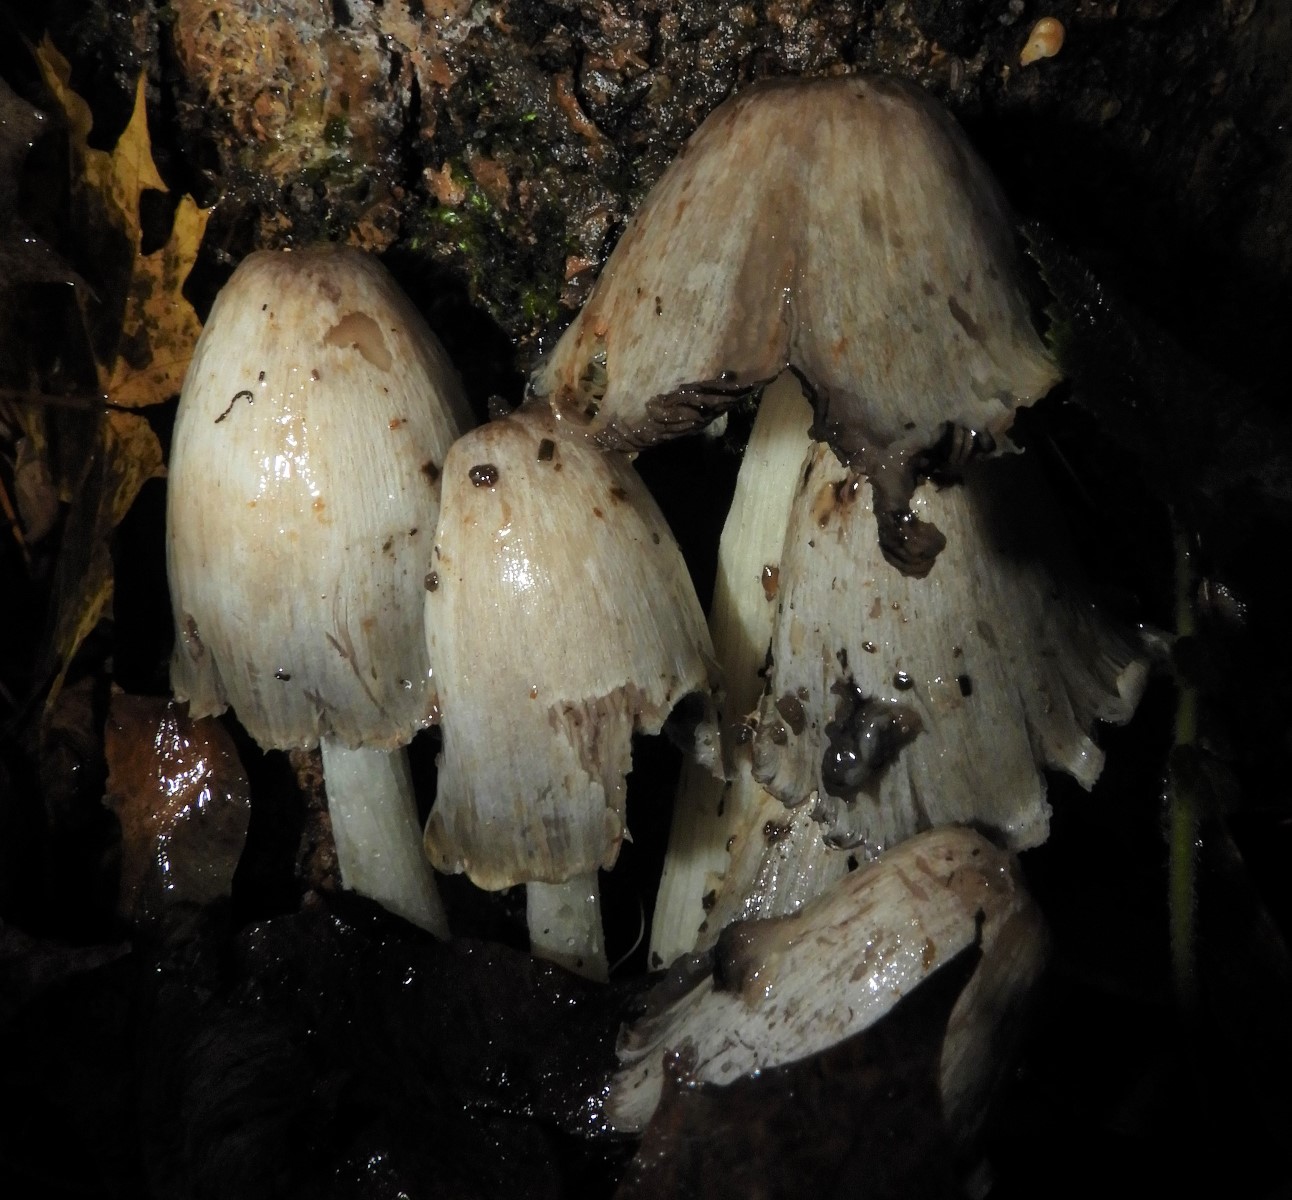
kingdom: Fungi
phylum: Basidiomycota
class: Agaricomycetes
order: Agaricales
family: Psathyrellaceae
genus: Coprinopsis
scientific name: Coprinopsis
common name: blækhat
